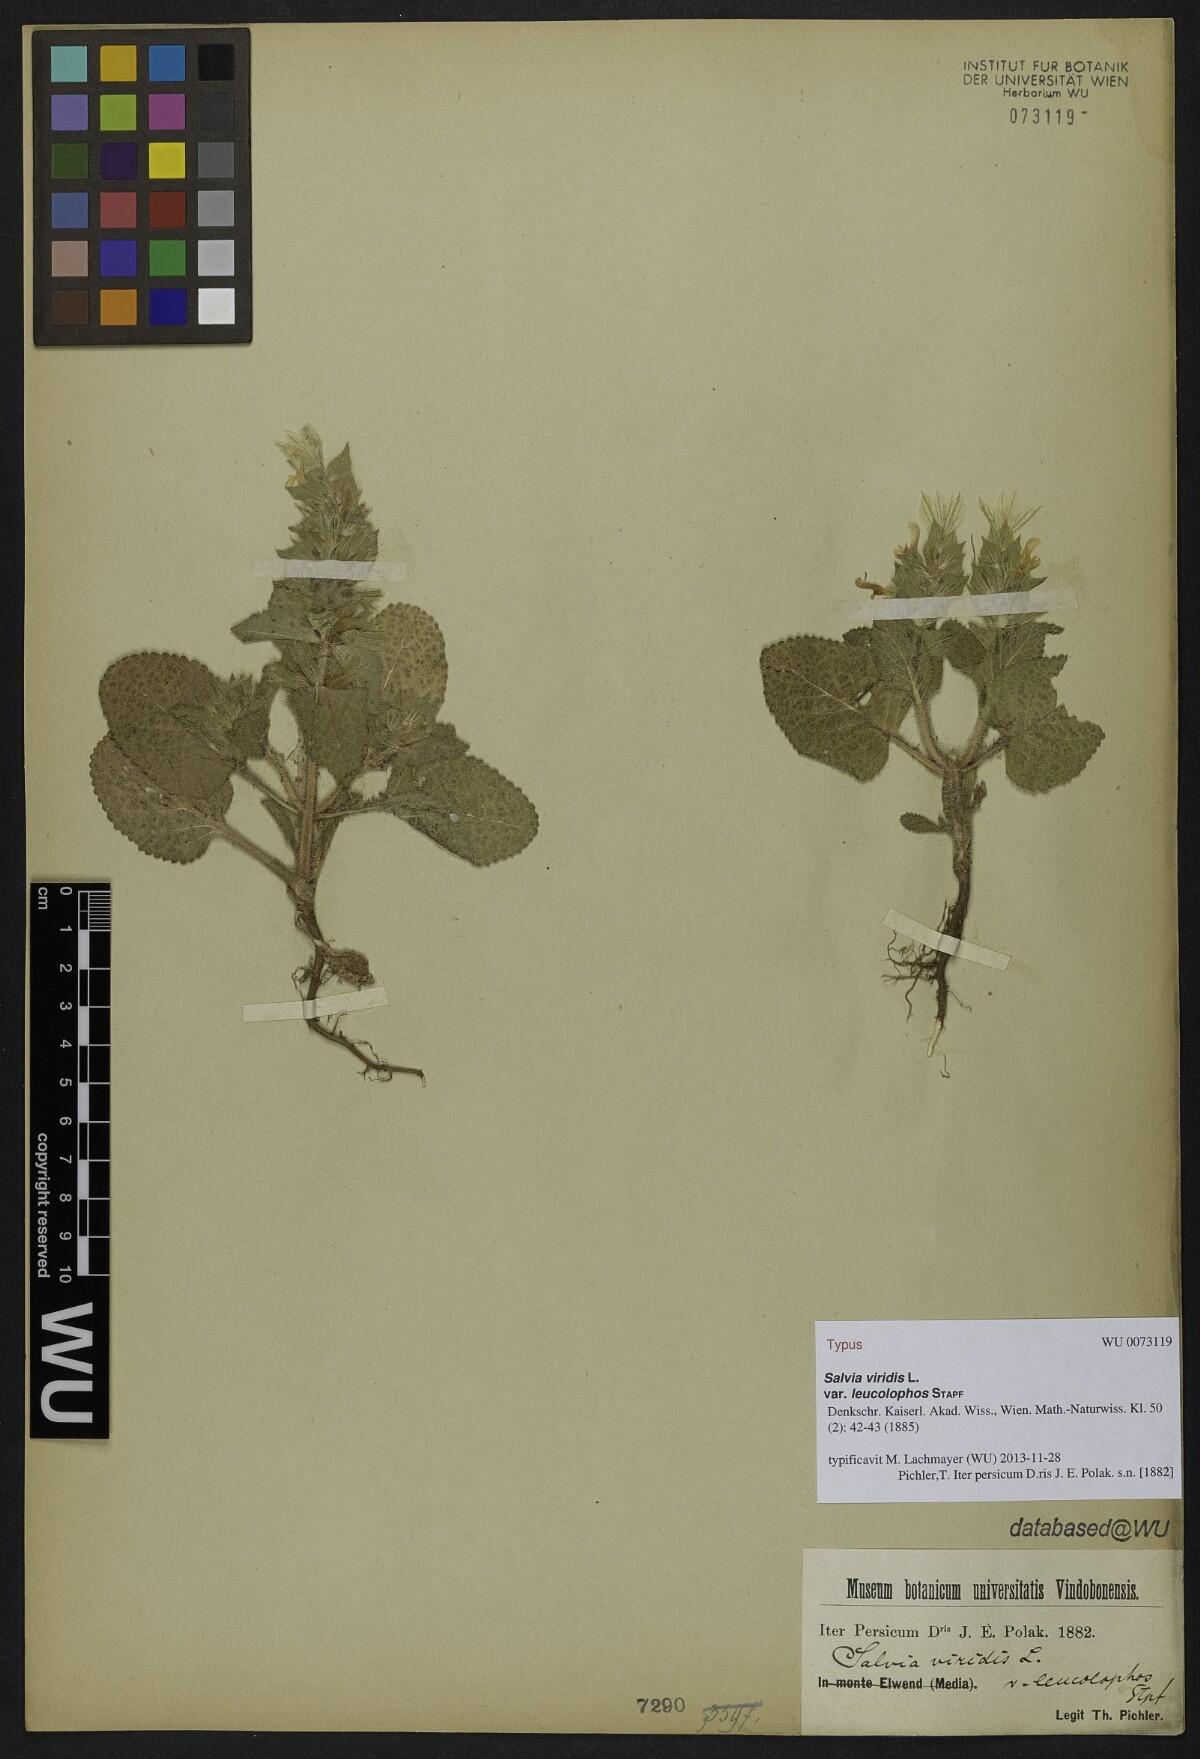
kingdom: Plantae
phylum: Tracheophyta
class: Magnoliopsida
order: Lamiales
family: Lamiaceae
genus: Salvia
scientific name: Salvia viridis
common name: Annual clary
